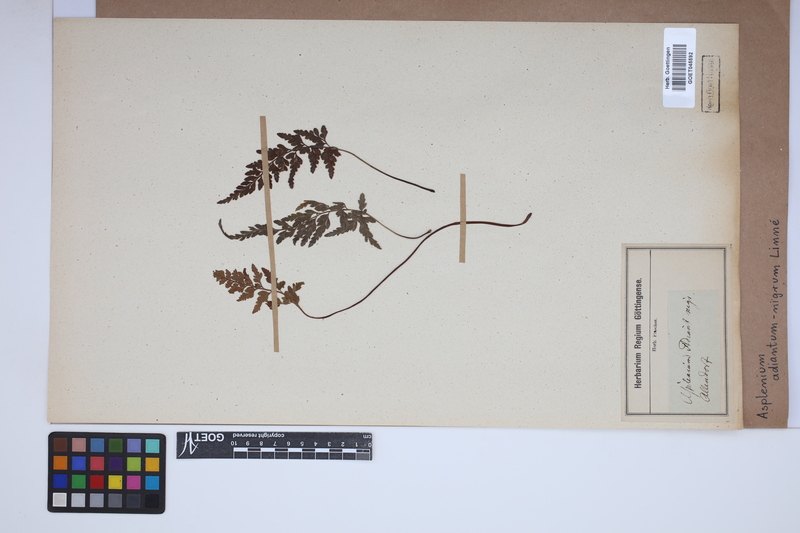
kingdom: Plantae
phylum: Tracheophyta
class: Polypodiopsida
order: Polypodiales
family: Aspleniaceae
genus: Asplenium
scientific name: Asplenium adiantum-nigrum
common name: Black spleenwort
